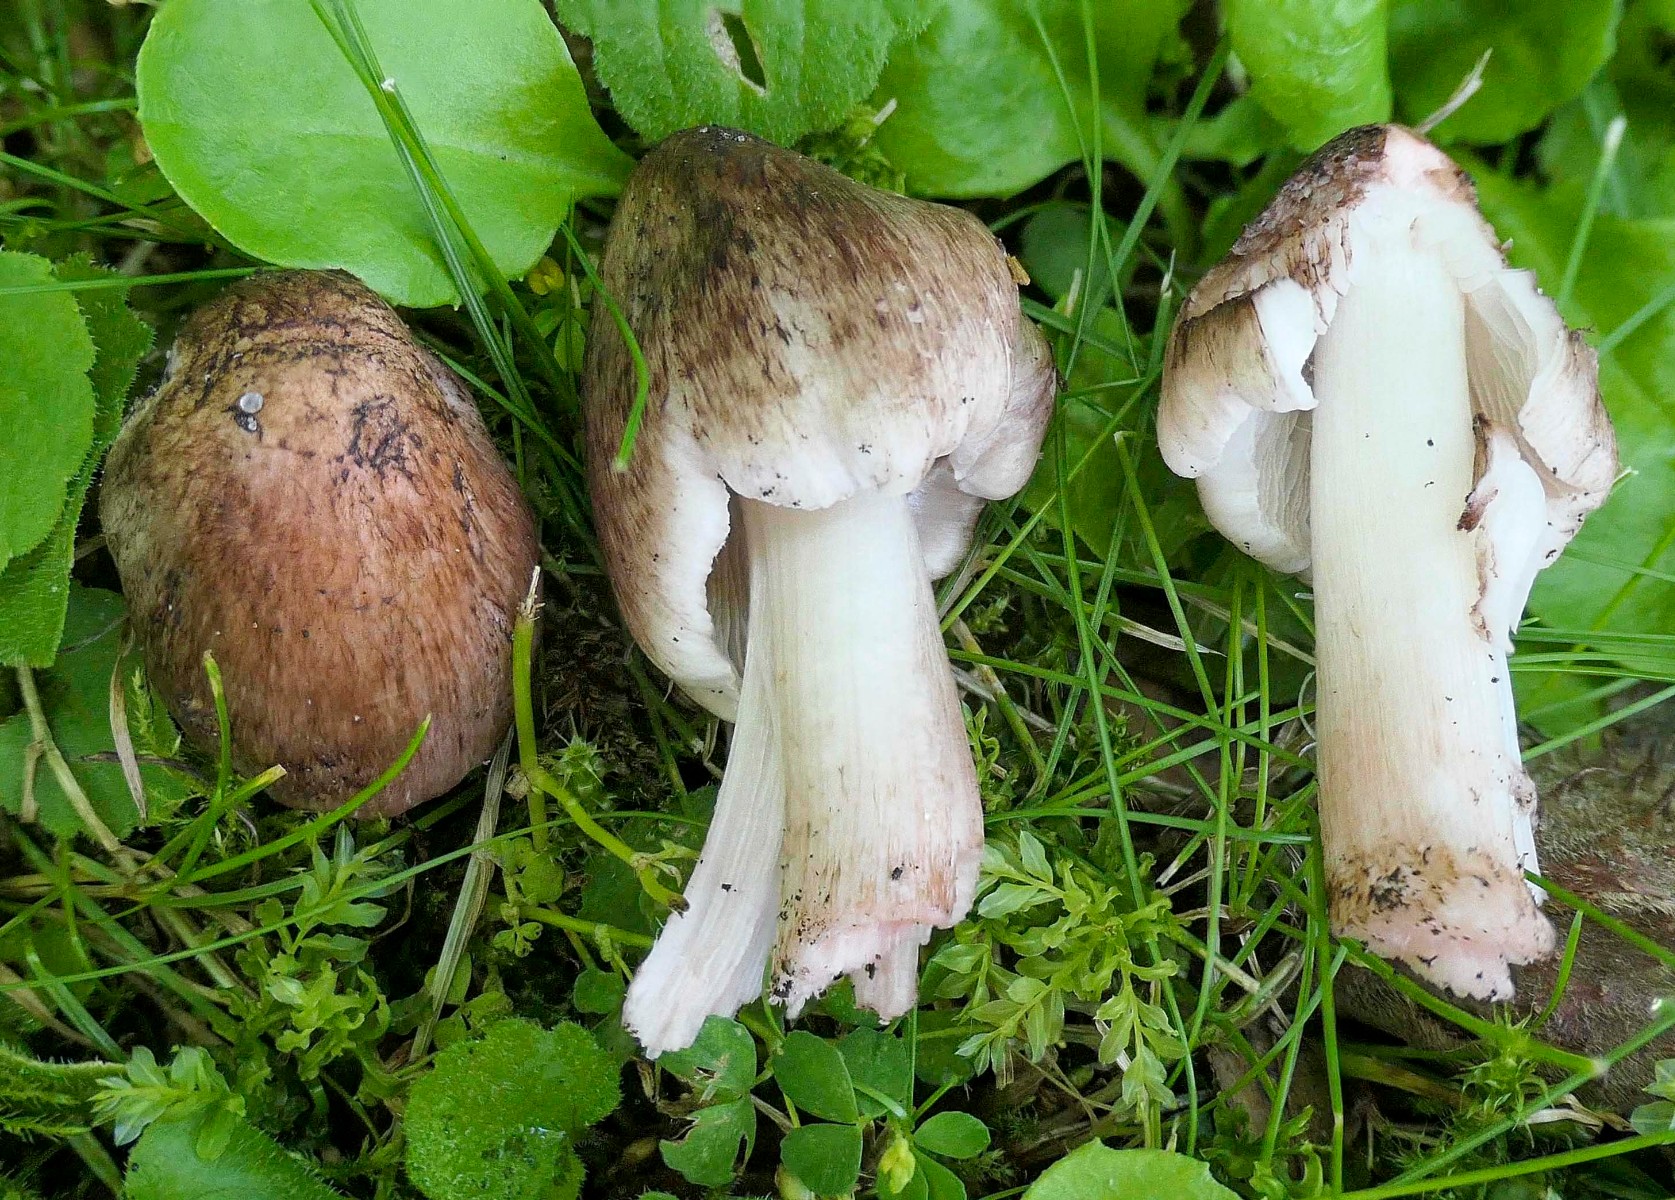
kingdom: Fungi
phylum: Basidiomycota
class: Agaricomycetes
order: Agaricales
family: Inocybaceae
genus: Inosperma
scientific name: Inosperma adaequatum
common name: vinrød trævlhat
